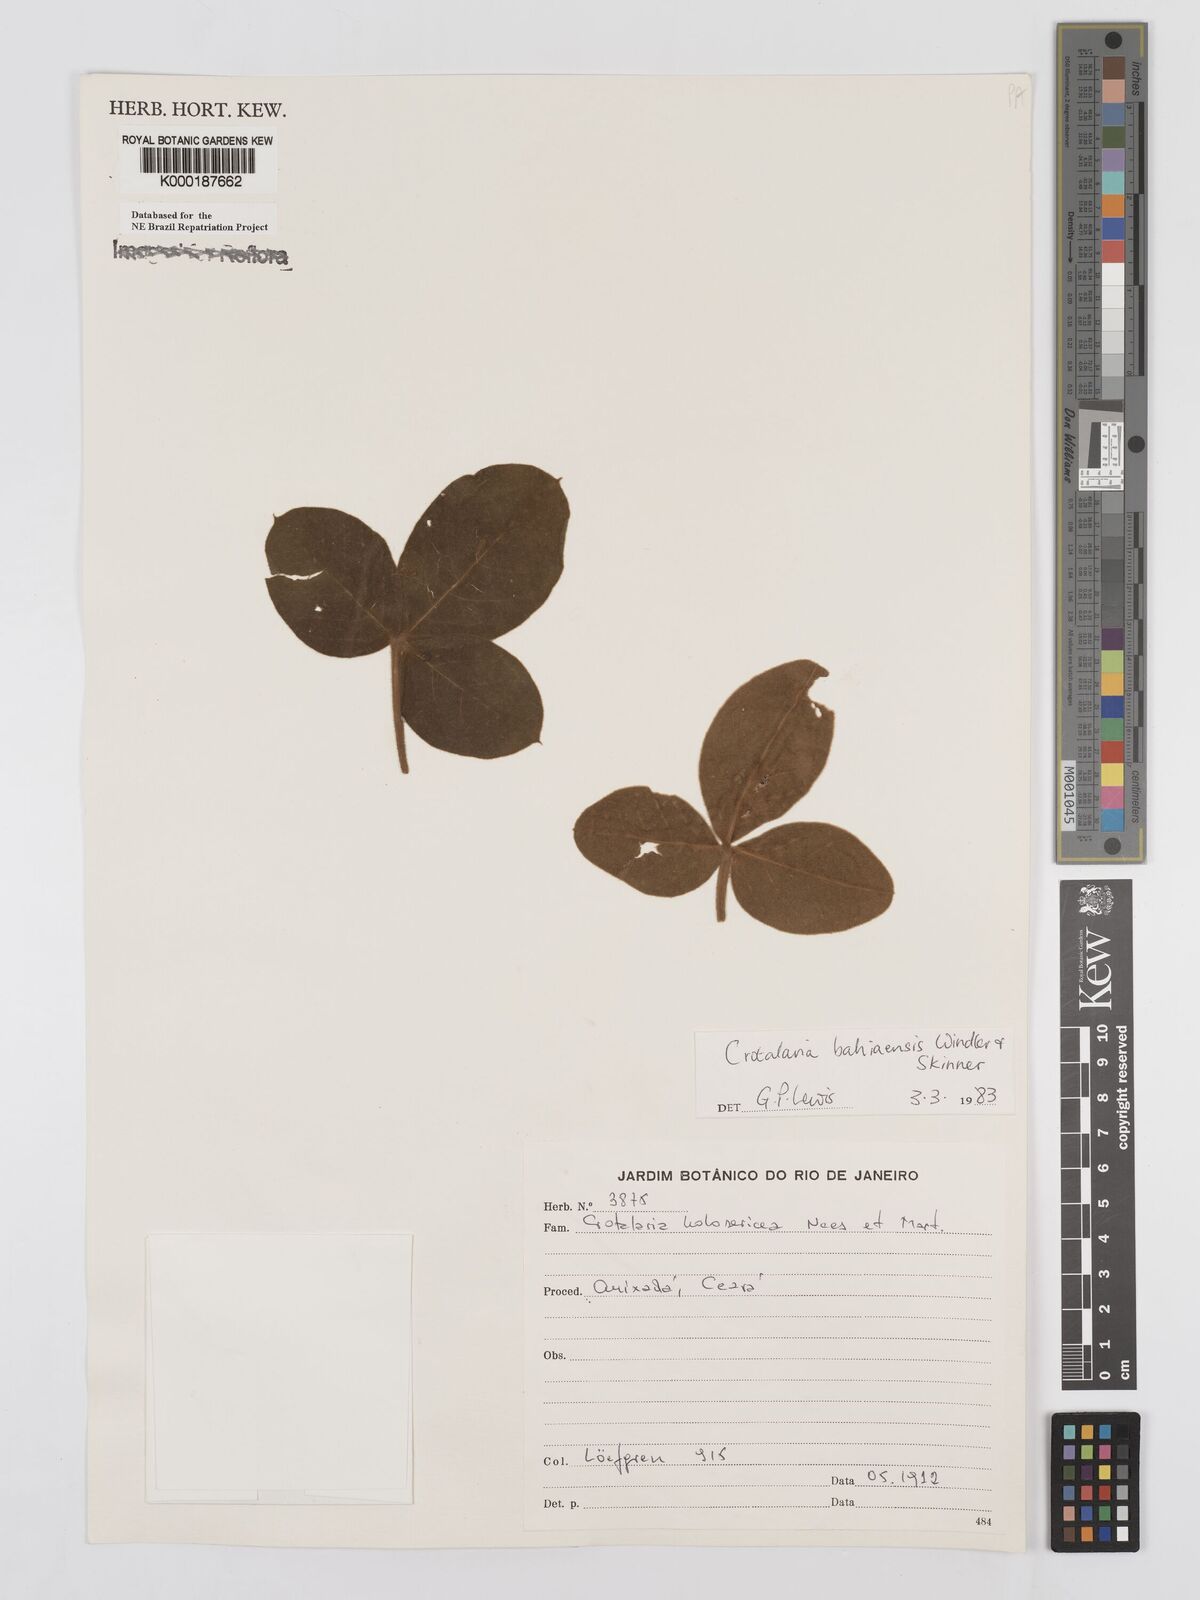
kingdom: Plantae
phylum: Tracheophyta
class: Magnoliopsida
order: Fabales
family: Fabaceae
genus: Crotalaria
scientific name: Crotalaria
